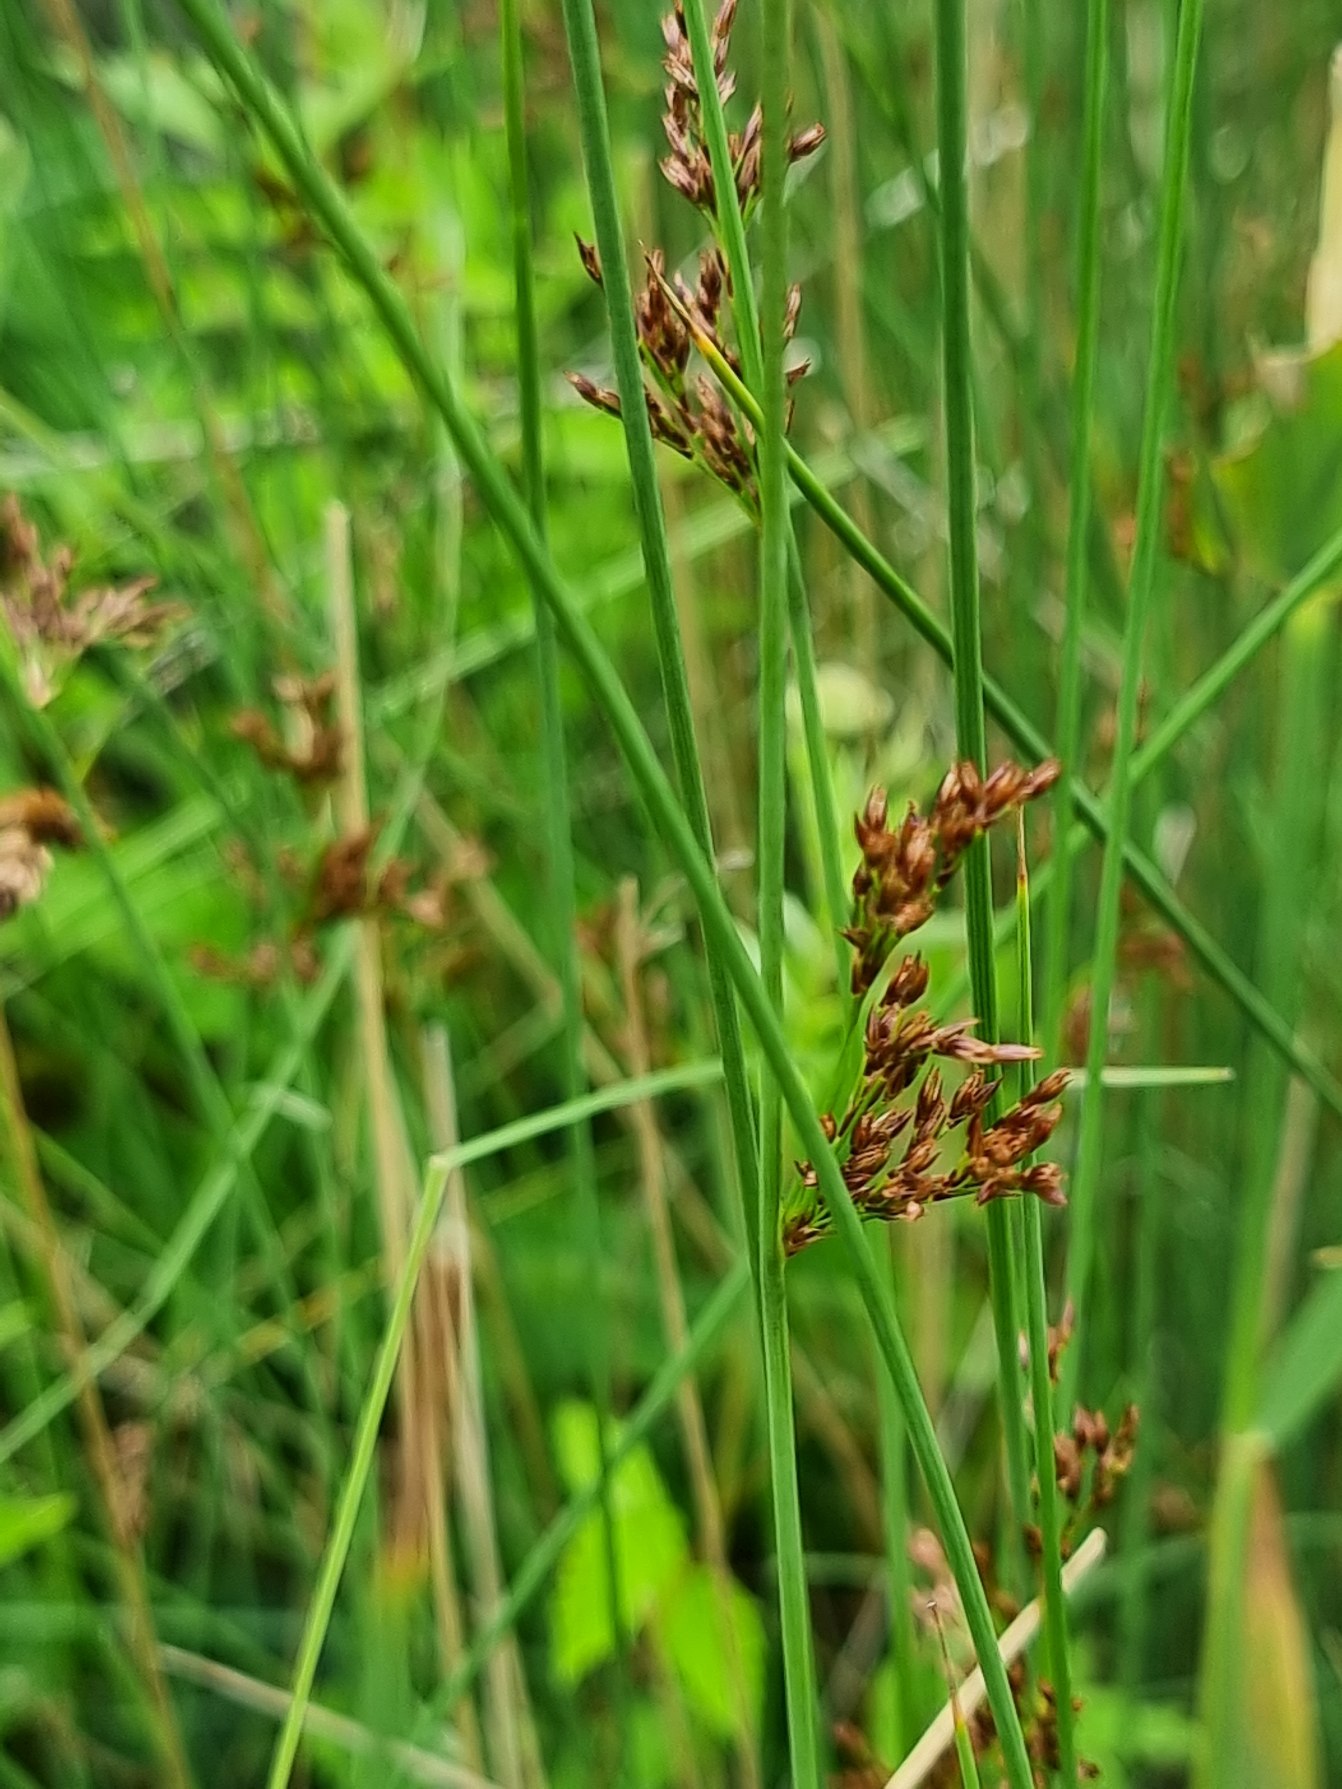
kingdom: Plantae
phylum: Tracheophyta
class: Liliopsida
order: Poales
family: Juncaceae
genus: Juncus
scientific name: Juncus inflexus
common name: Blågrå siv
